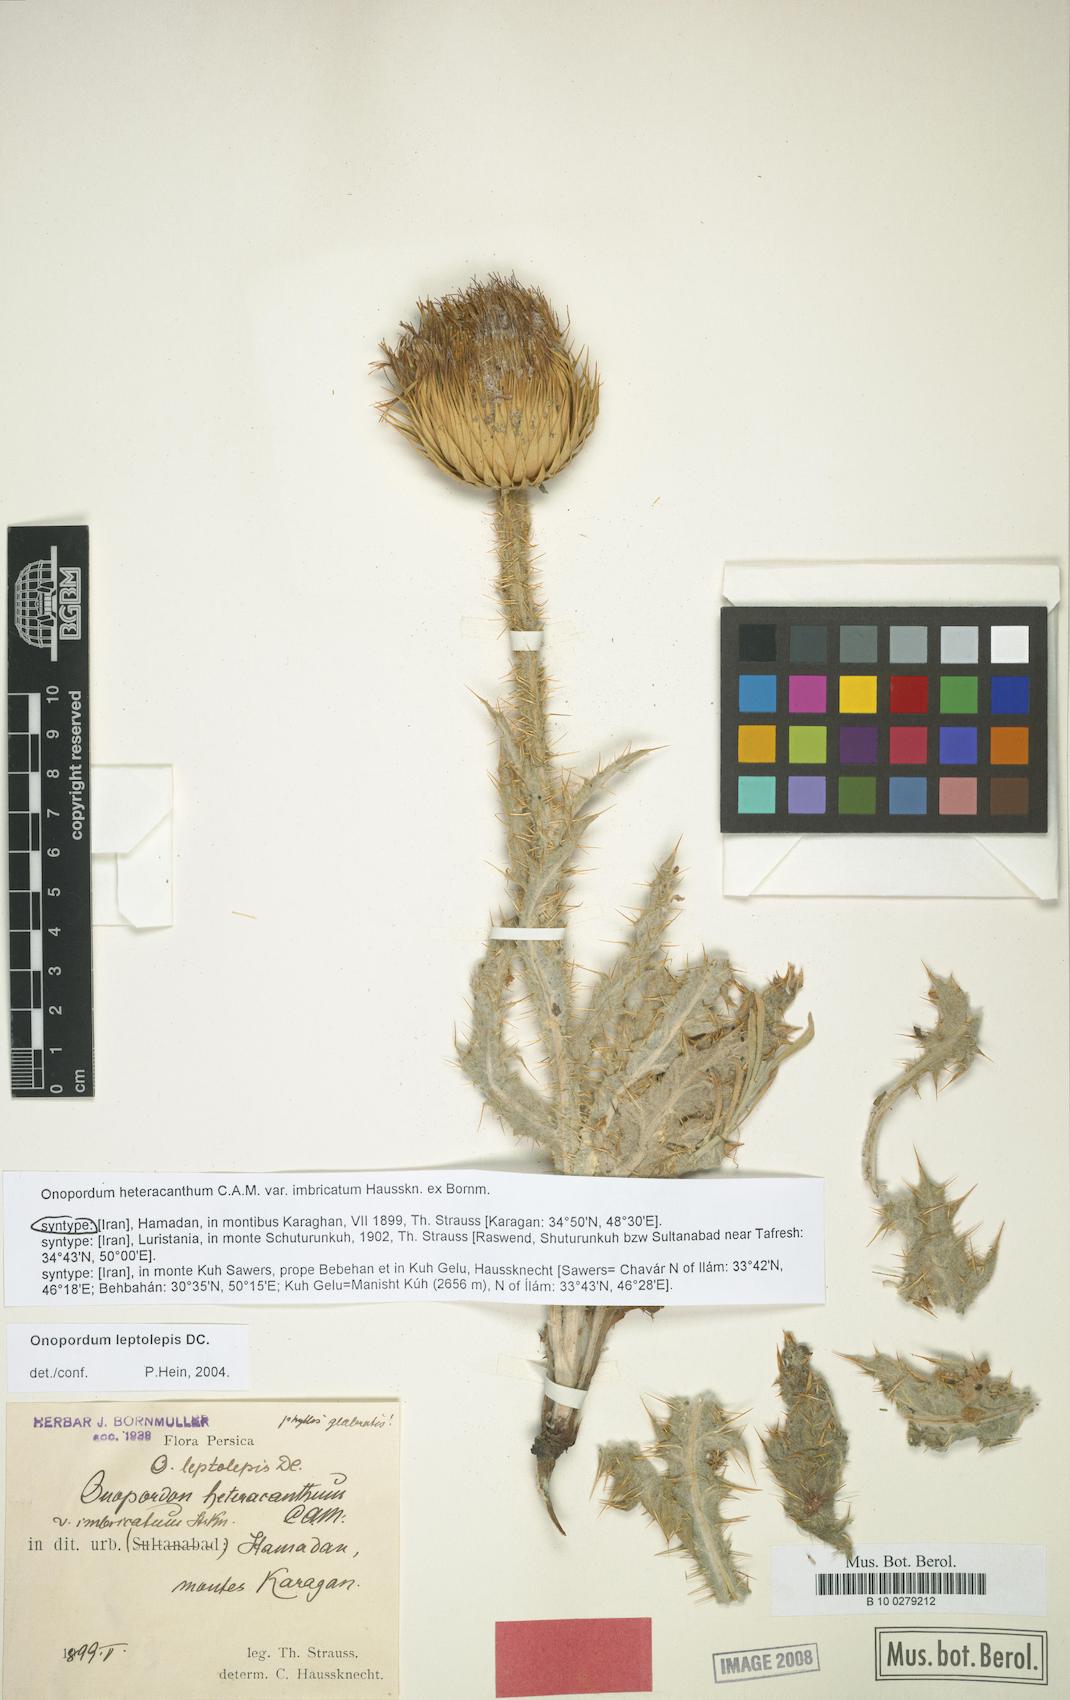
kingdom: Plantae
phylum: Tracheophyta
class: Magnoliopsida
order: Asterales
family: Asteraceae
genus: Onopordum
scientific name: Onopordum leptolepis
